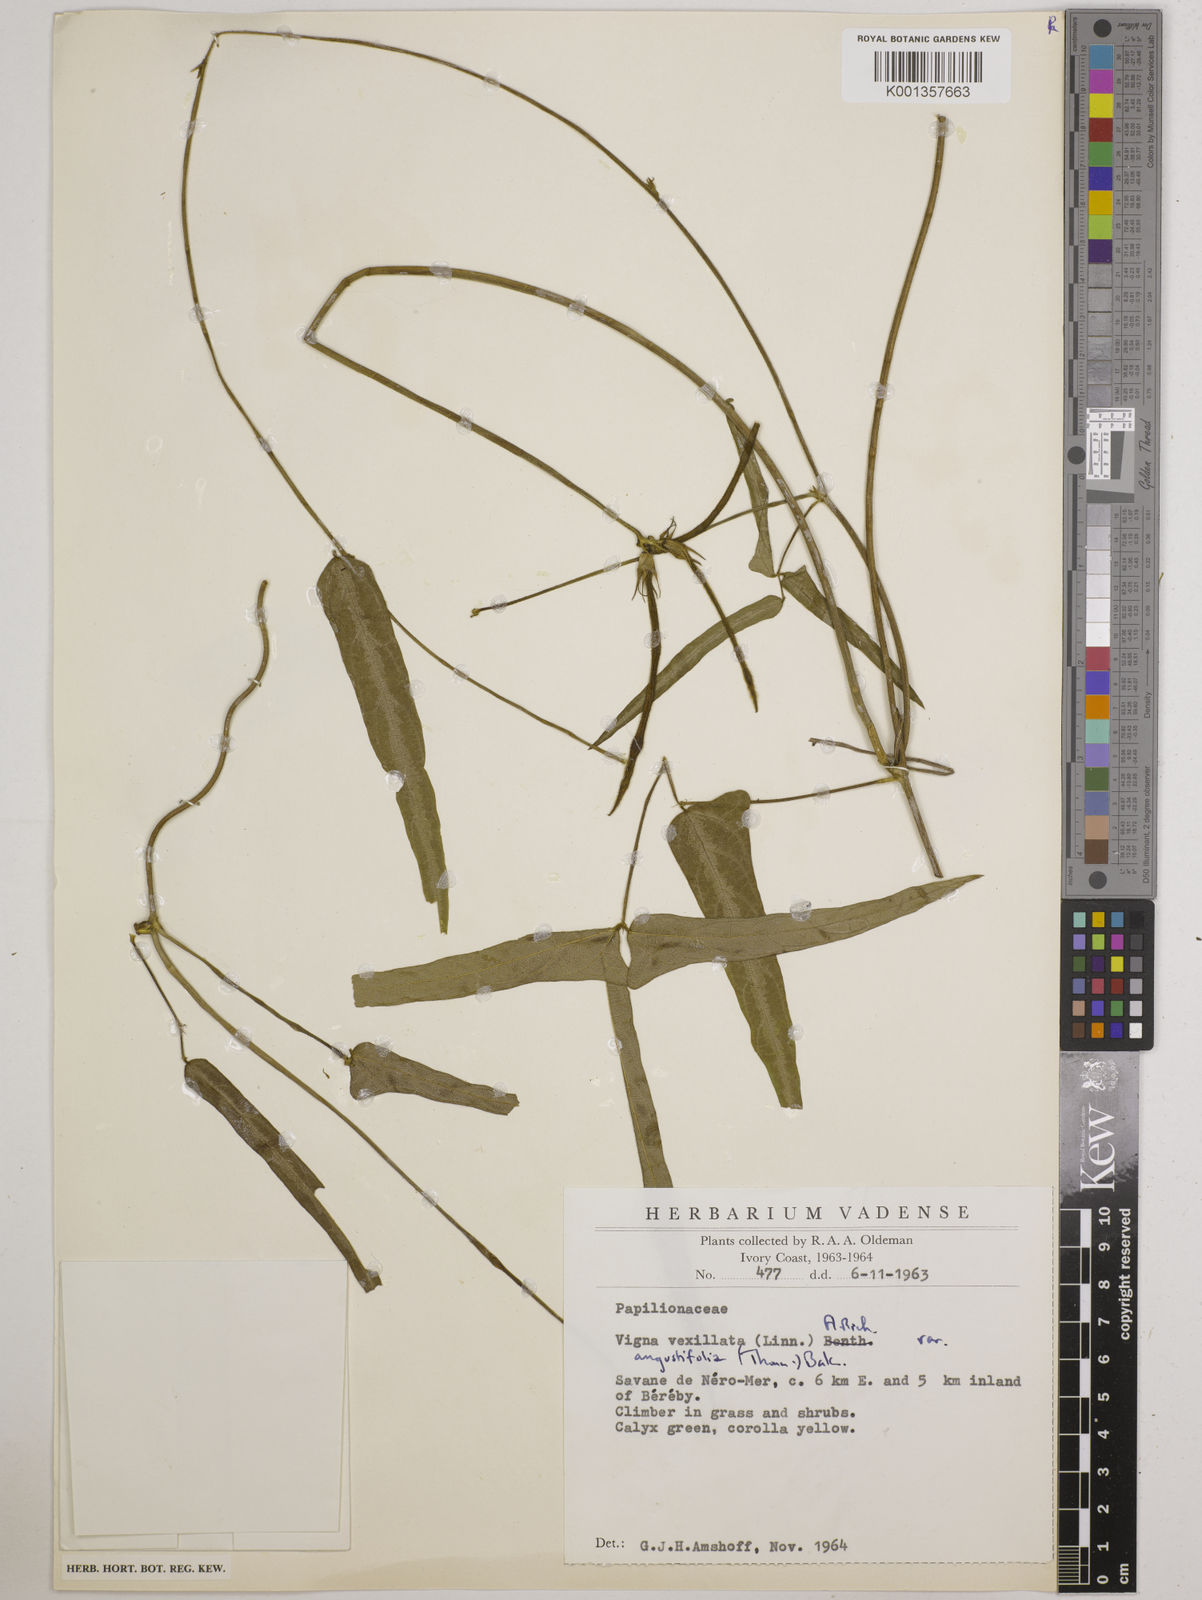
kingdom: Plantae
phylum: Tracheophyta
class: Magnoliopsida
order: Fabales
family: Fabaceae
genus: Vigna
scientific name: Vigna vexillata
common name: Zombi pea
